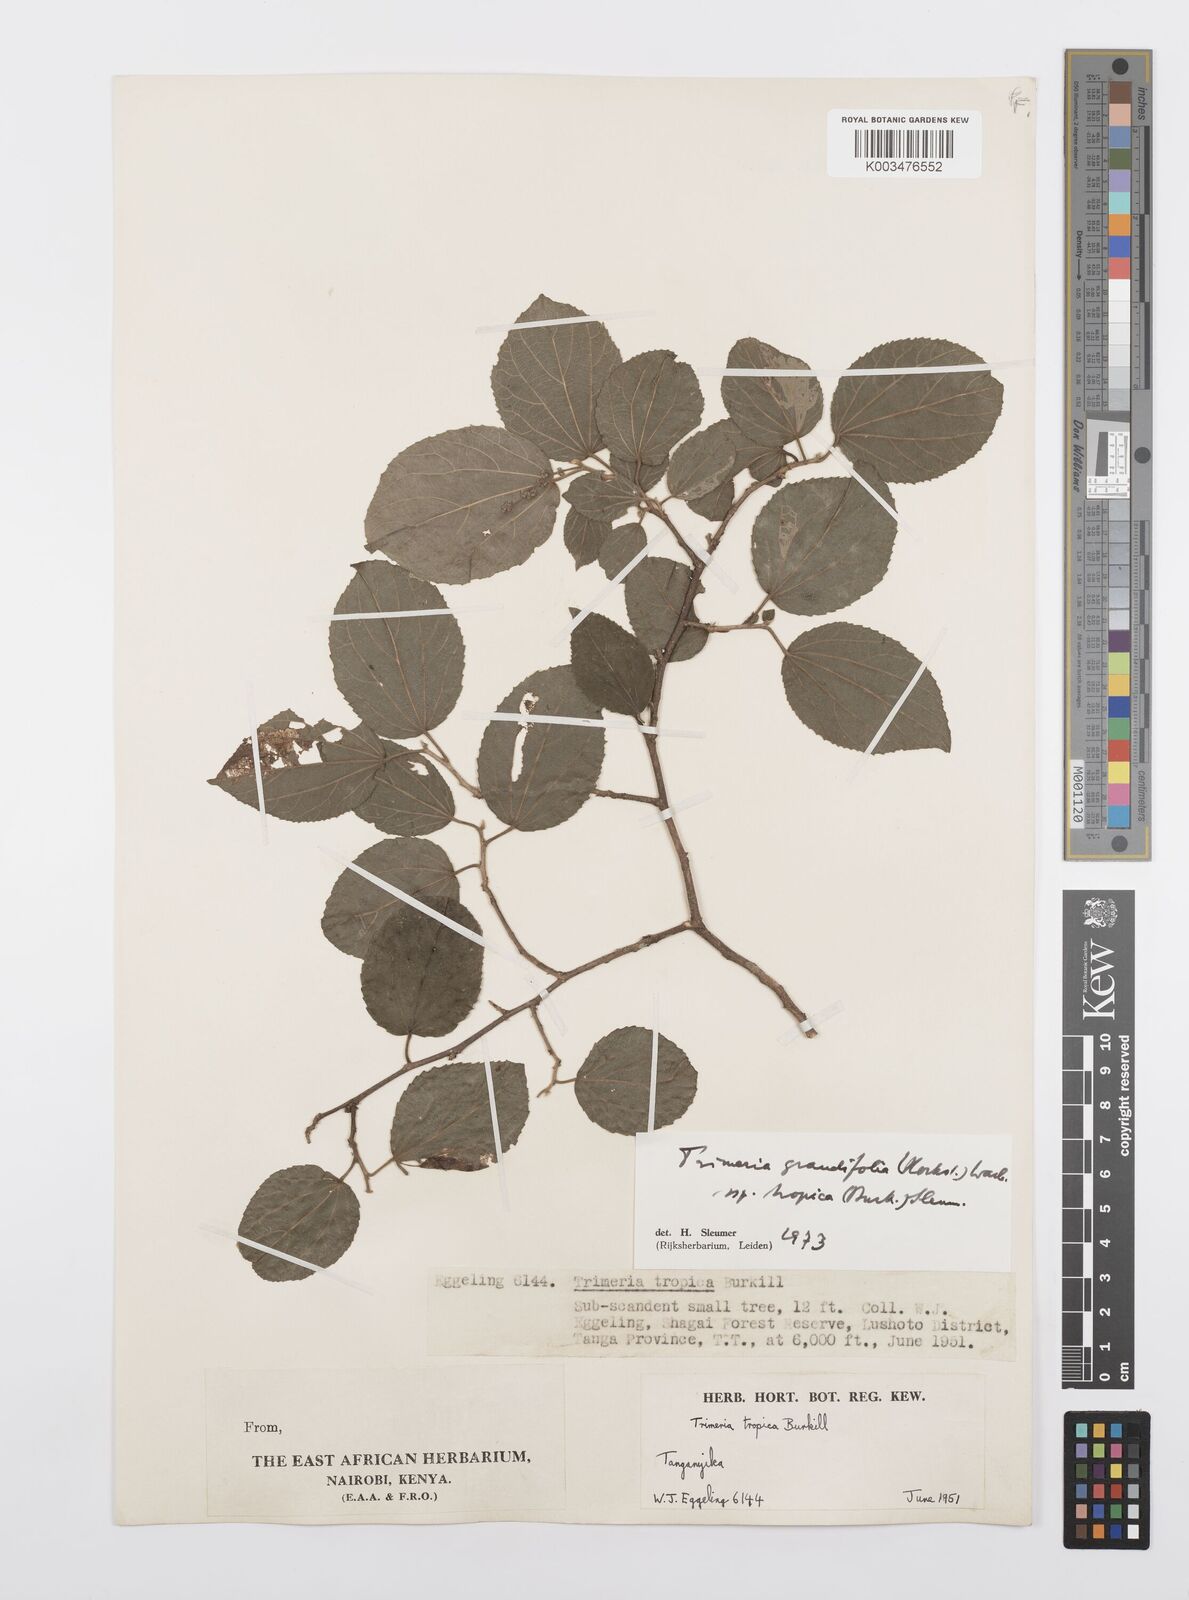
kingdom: Plantae
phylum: Tracheophyta
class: Magnoliopsida
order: Malpighiales
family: Salicaceae
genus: Trimeria
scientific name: Trimeria grandifolia
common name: Wild mulberry
